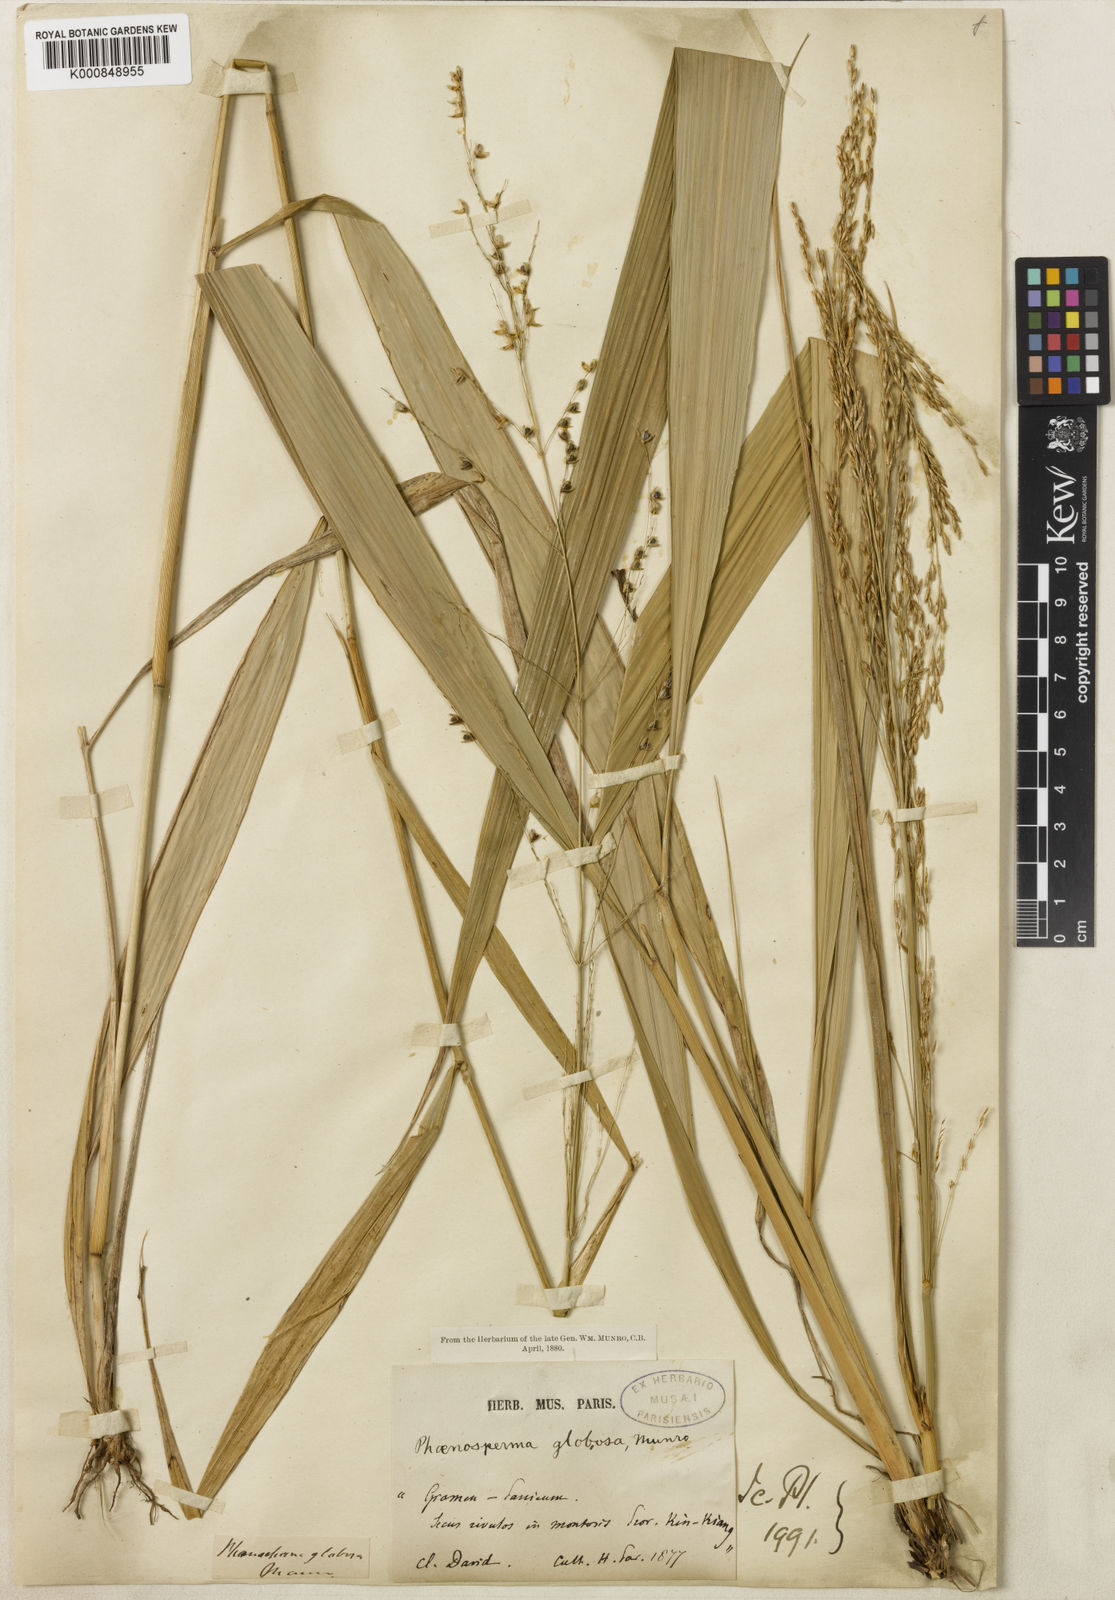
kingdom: Plantae
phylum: Tracheophyta
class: Liliopsida
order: Poales
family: Poaceae
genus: Phaenosperma
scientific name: Phaenosperma
